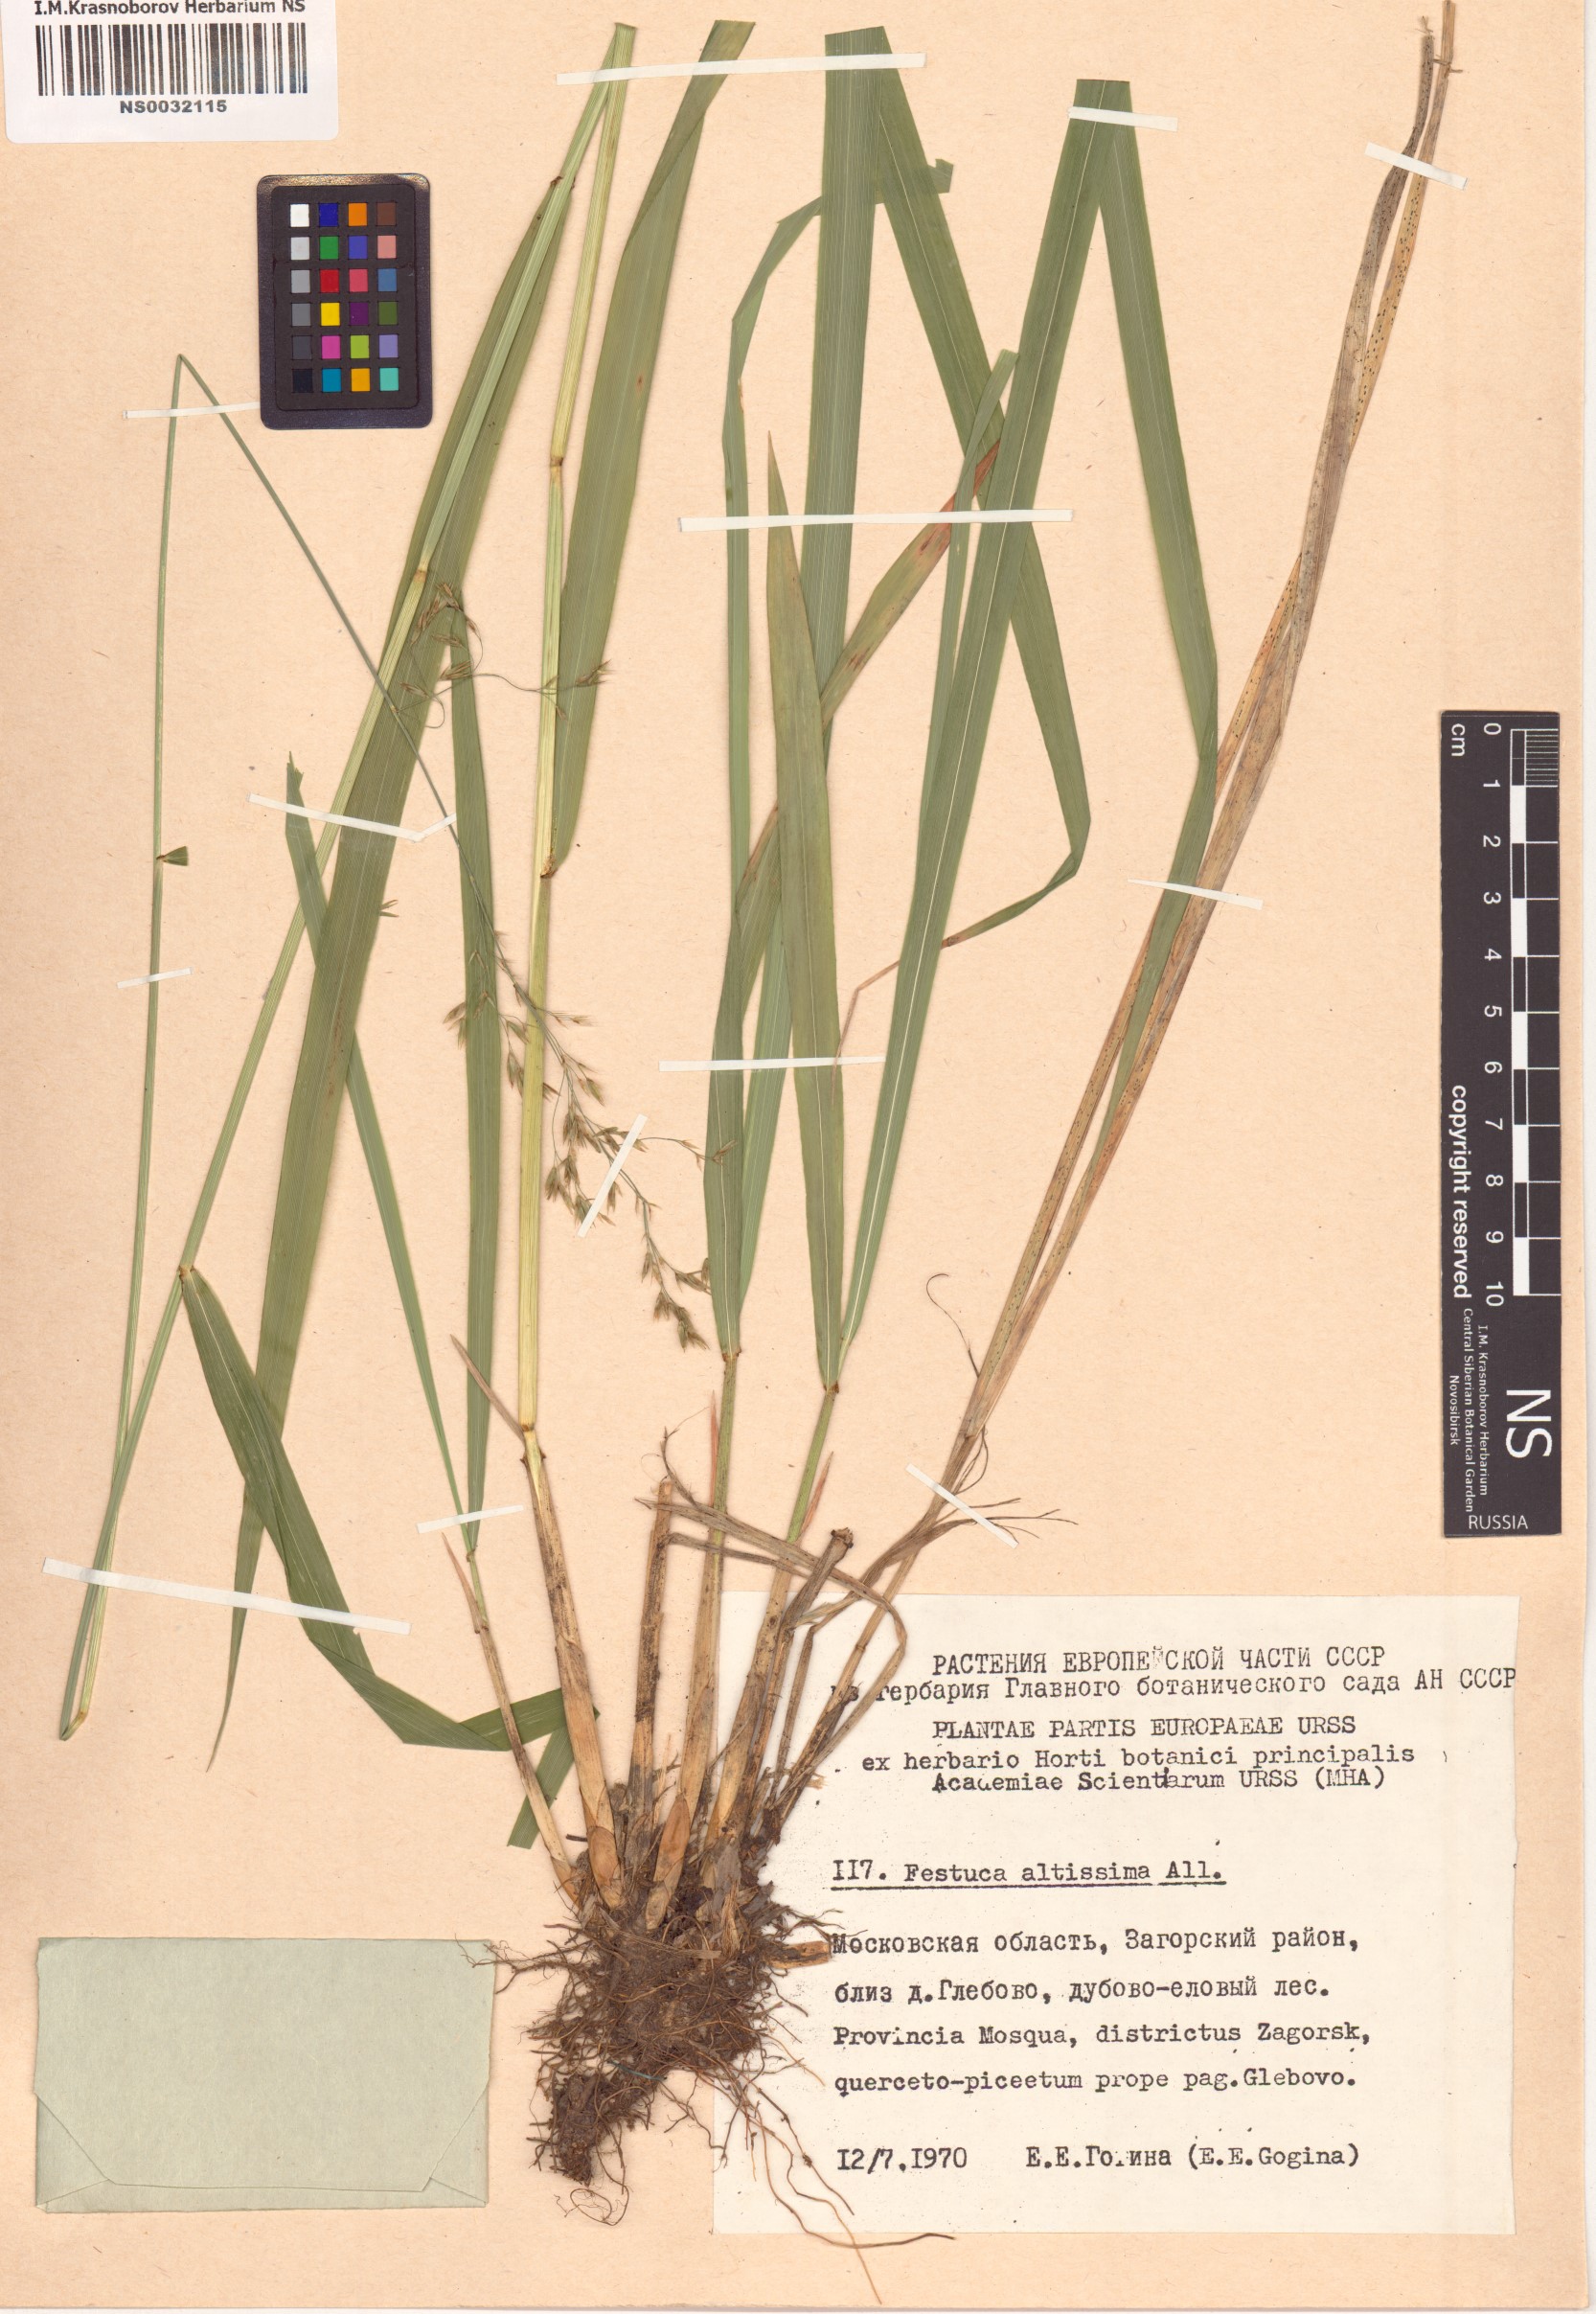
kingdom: Plantae
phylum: Tracheophyta
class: Liliopsida
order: Poales
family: Poaceae
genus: Festuca
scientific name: Festuca altissima
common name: Wood fescue
